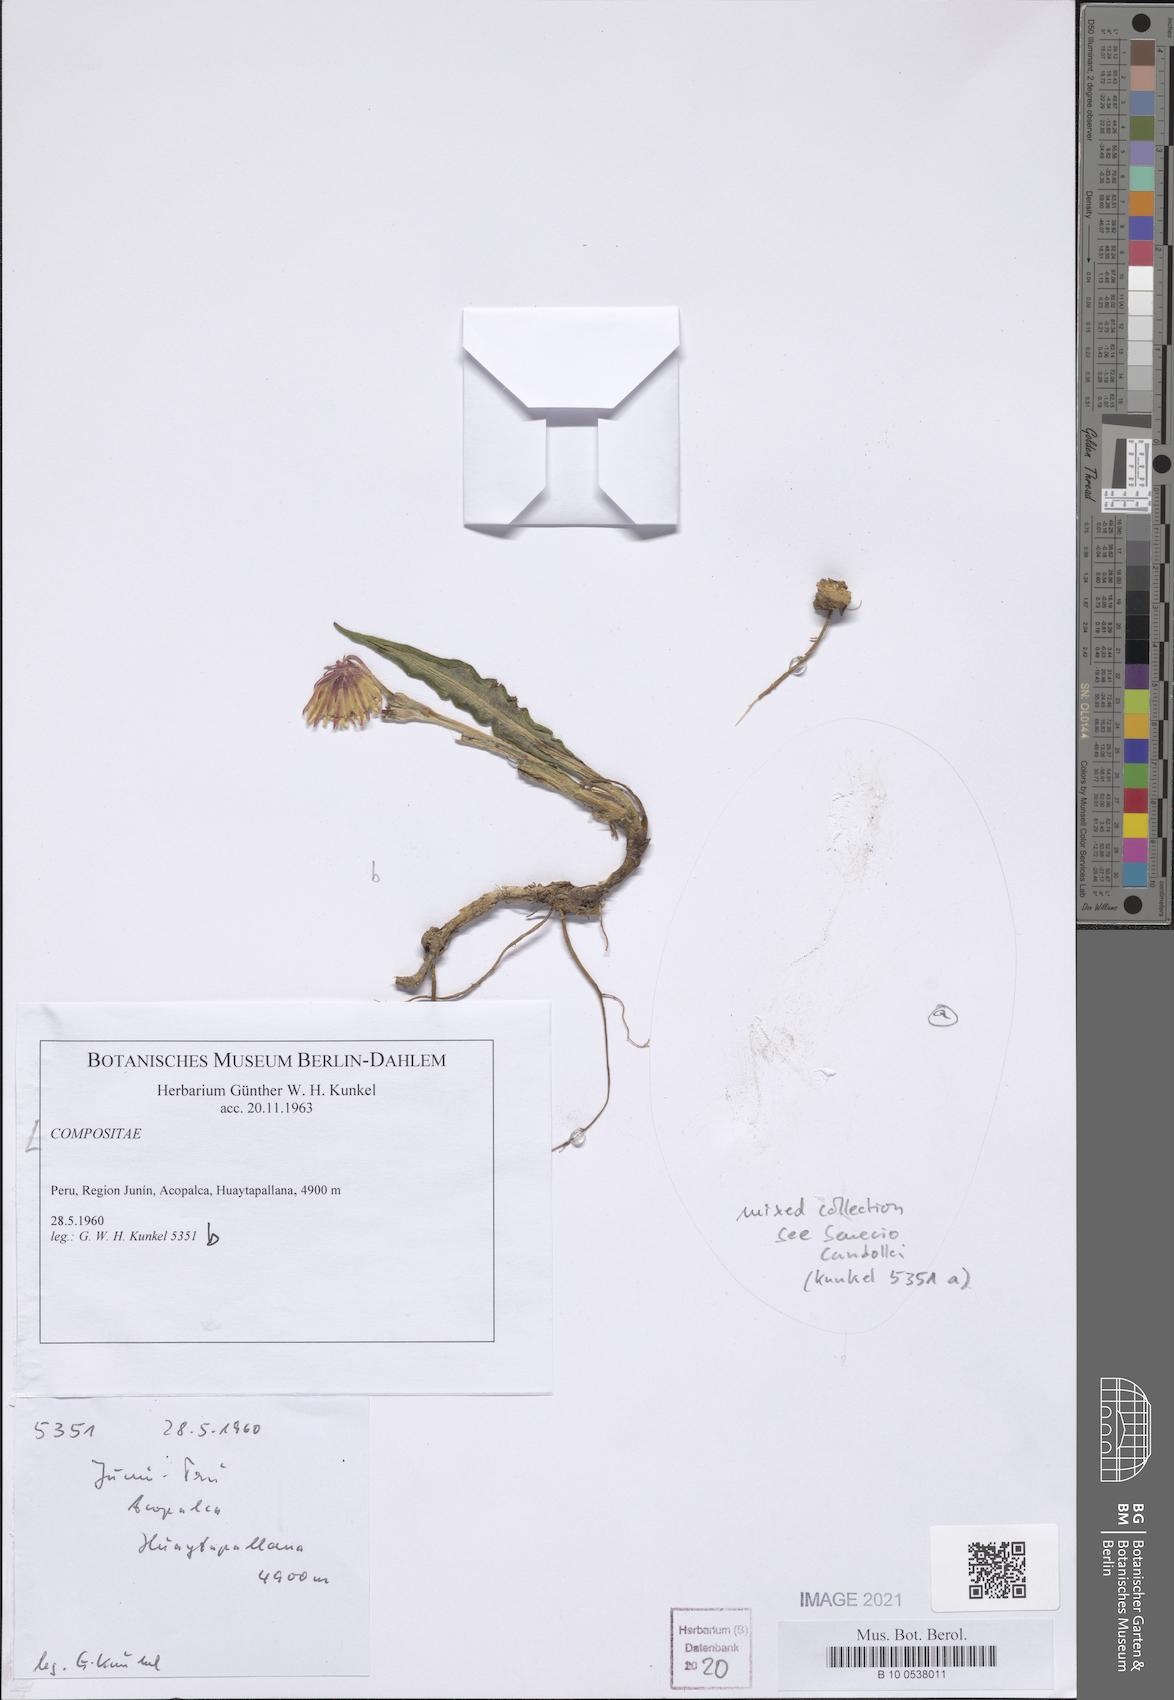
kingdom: Plantae
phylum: Tracheophyta
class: Magnoliopsida
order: Asterales
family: Asteraceae
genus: Chaptalia
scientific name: Chaptalia
